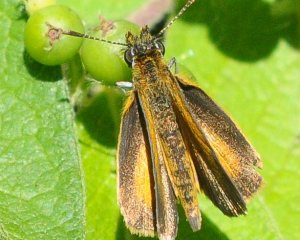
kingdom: Animalia
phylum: Arthropoda
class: Insecta
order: Lepidoptera
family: Hesperiidae
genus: Ancyloxypha
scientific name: Ancyloxypha numitor
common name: Least Skipper
